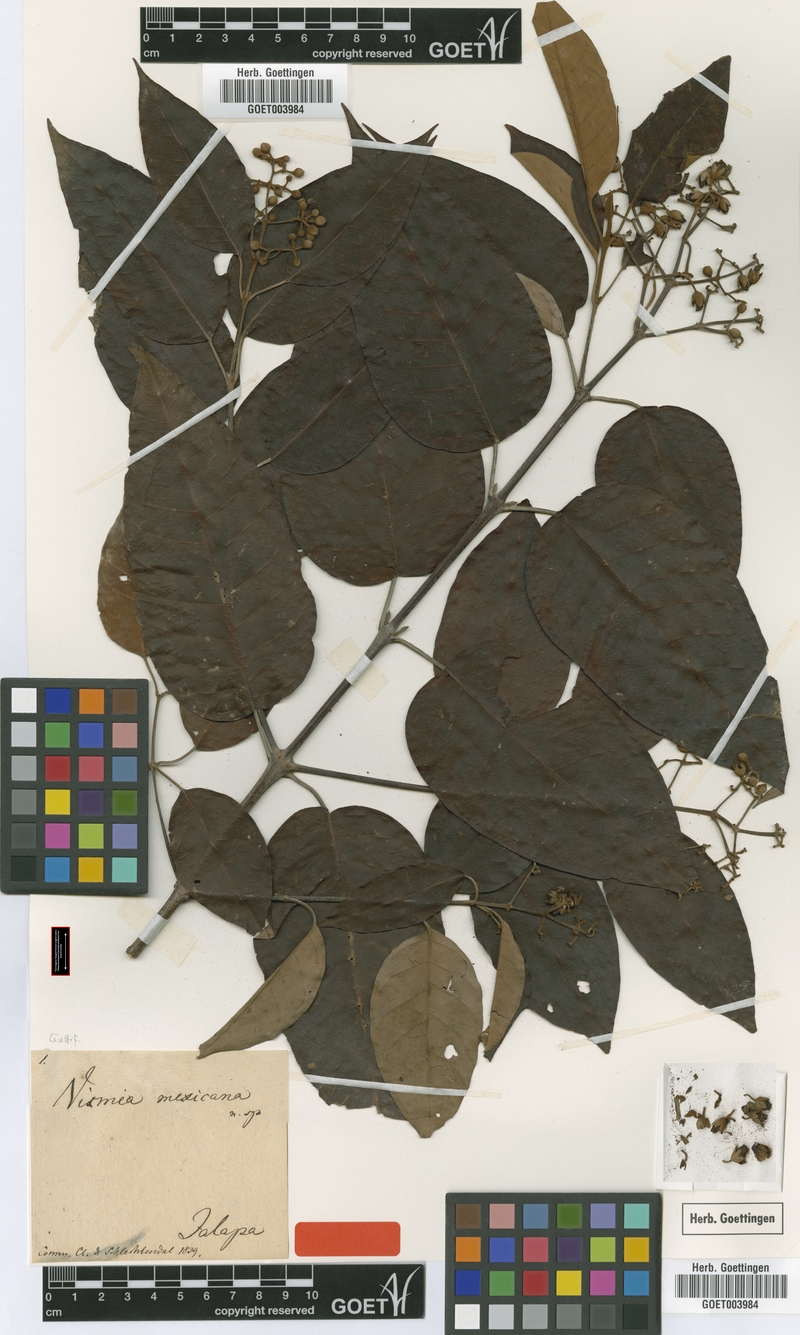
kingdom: Plantae
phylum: Tracheophyta
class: Magnoliopsida
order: Malpighiales
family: Hypericaceae
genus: Vismia
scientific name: Vismia baccifera
